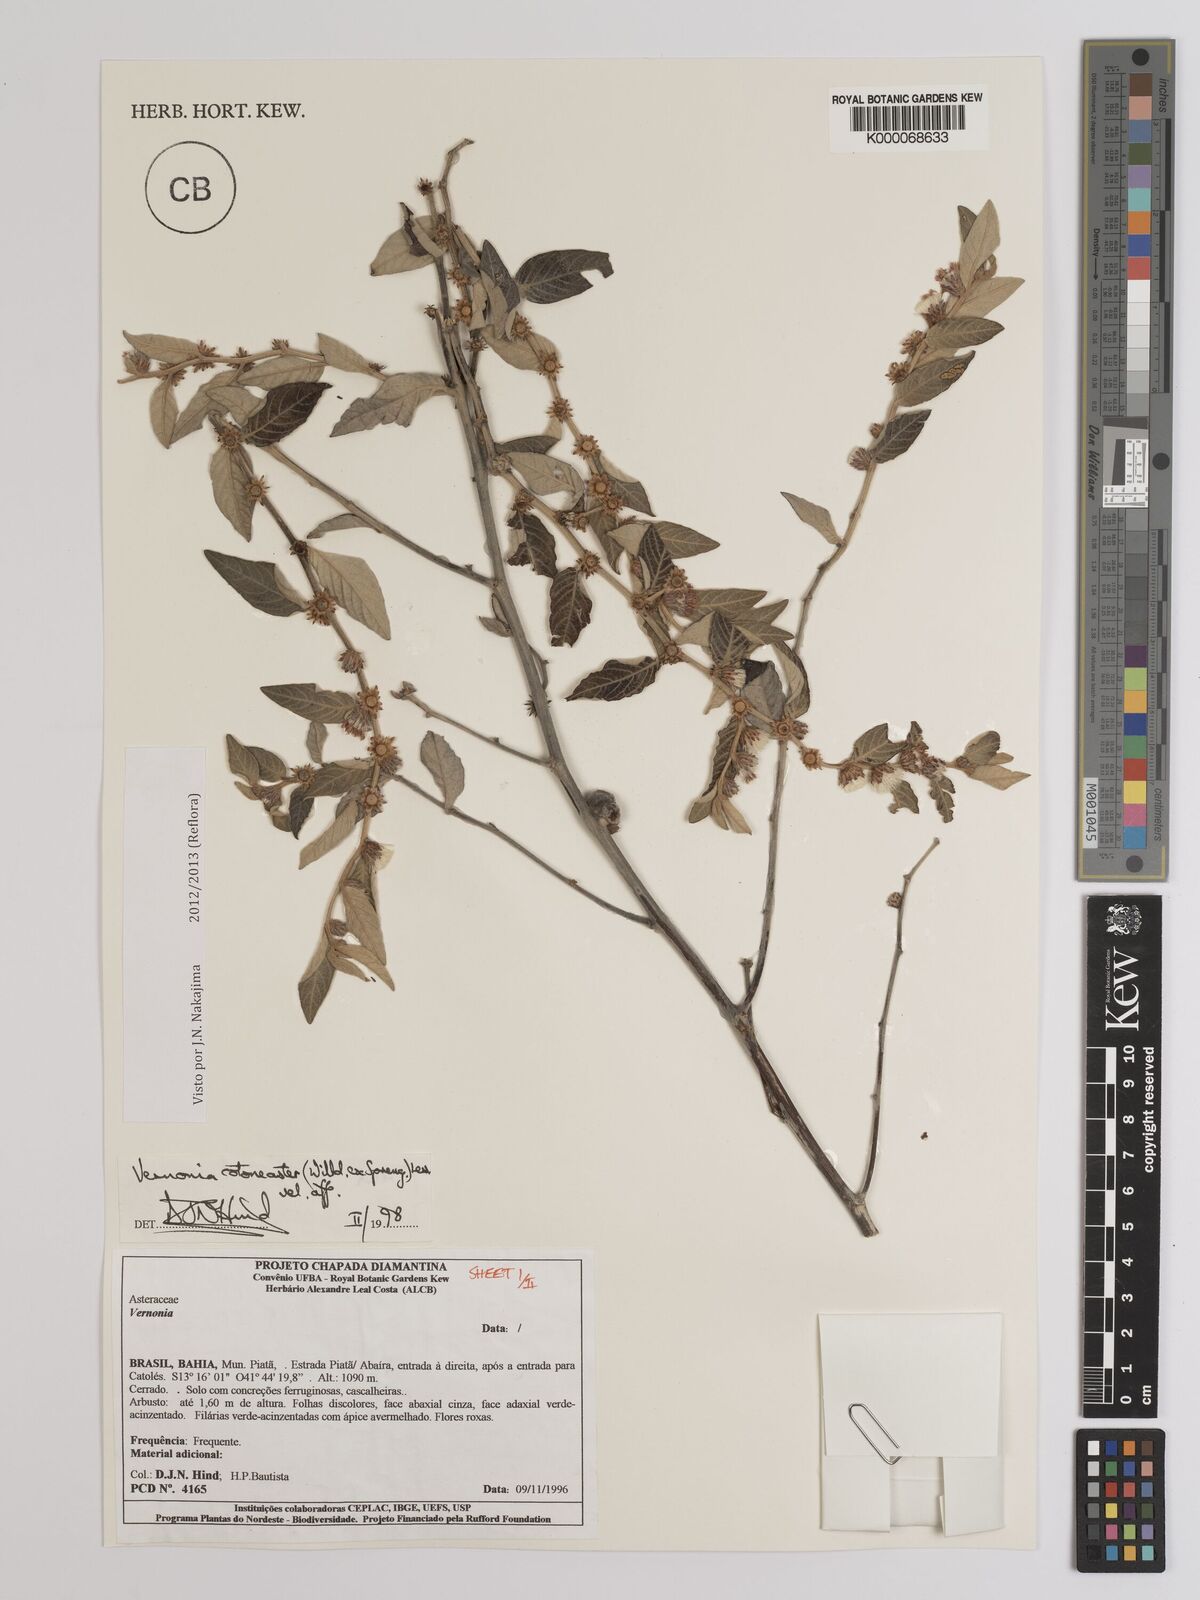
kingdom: Plantae
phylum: Tracheophyta
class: Magnoliopsida
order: Asterales
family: Asteraceae
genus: Lepidaploa
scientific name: Lepidaploa cotoneaster
